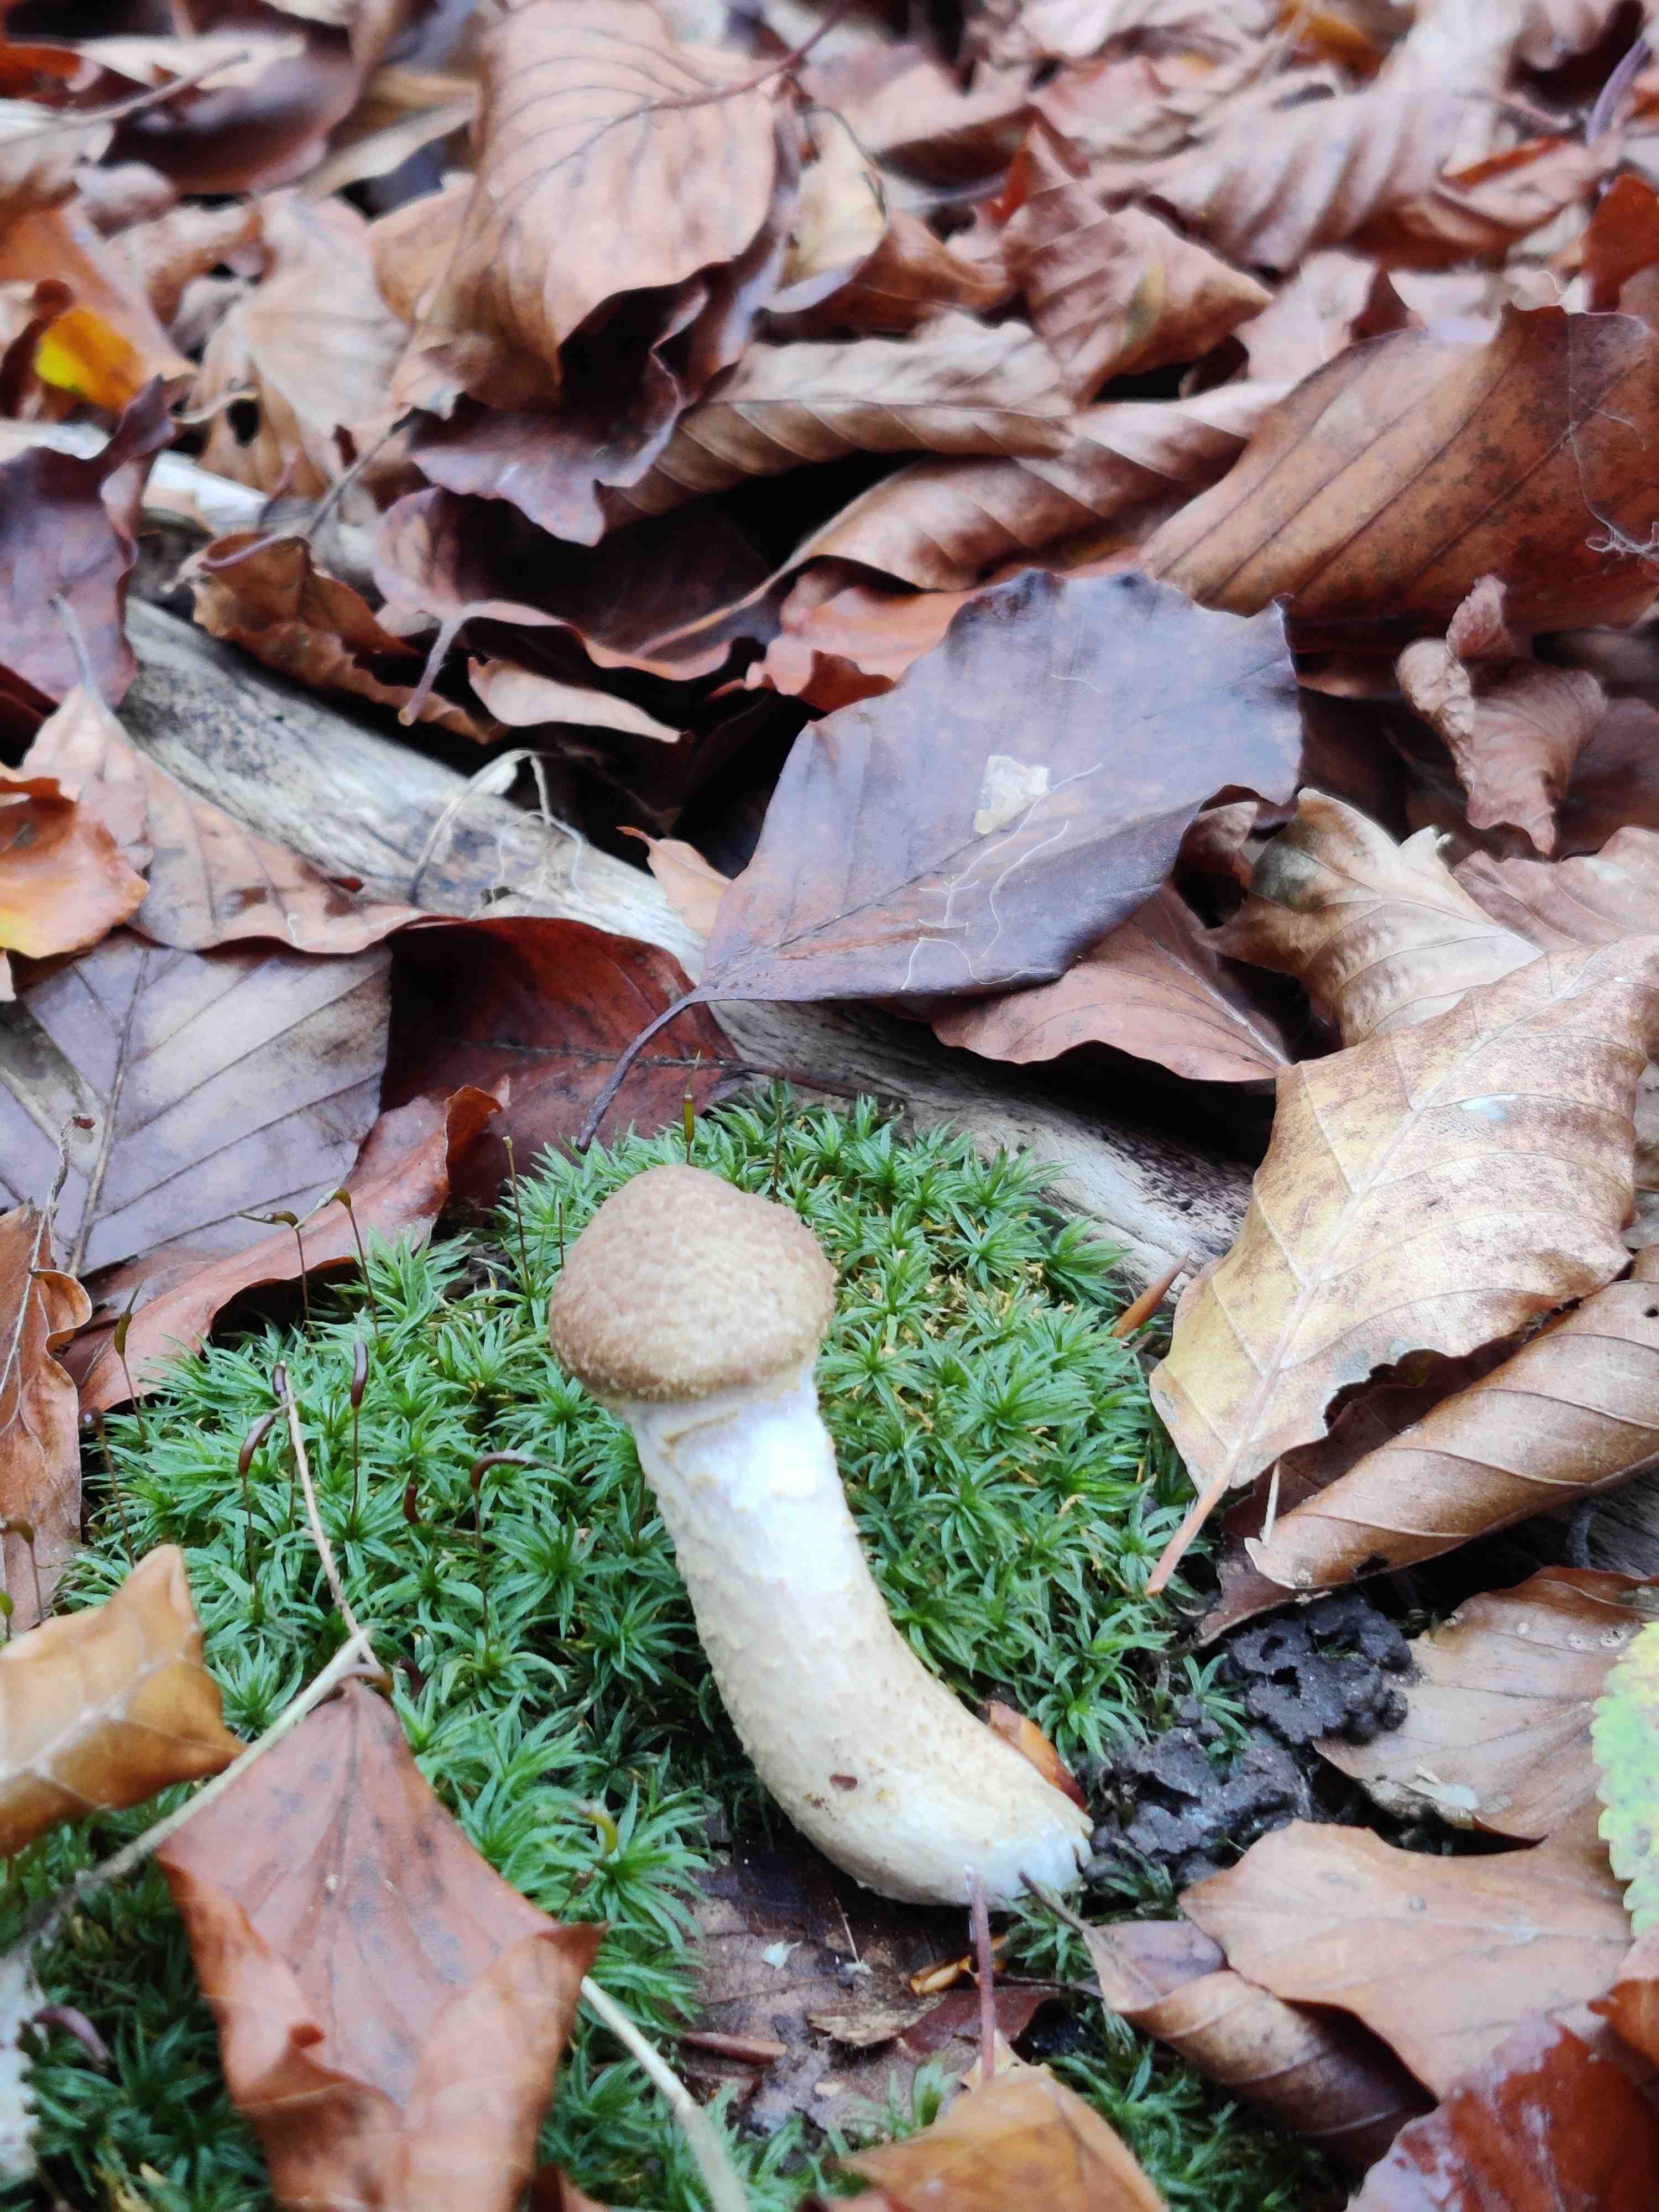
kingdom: Fungi
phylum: Basidiomycota
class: Agaricomycetes
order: Agaricales
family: Physalacriaceae
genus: Armillaria
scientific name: Armillaria lutea
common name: køllestokket honningsvamp
